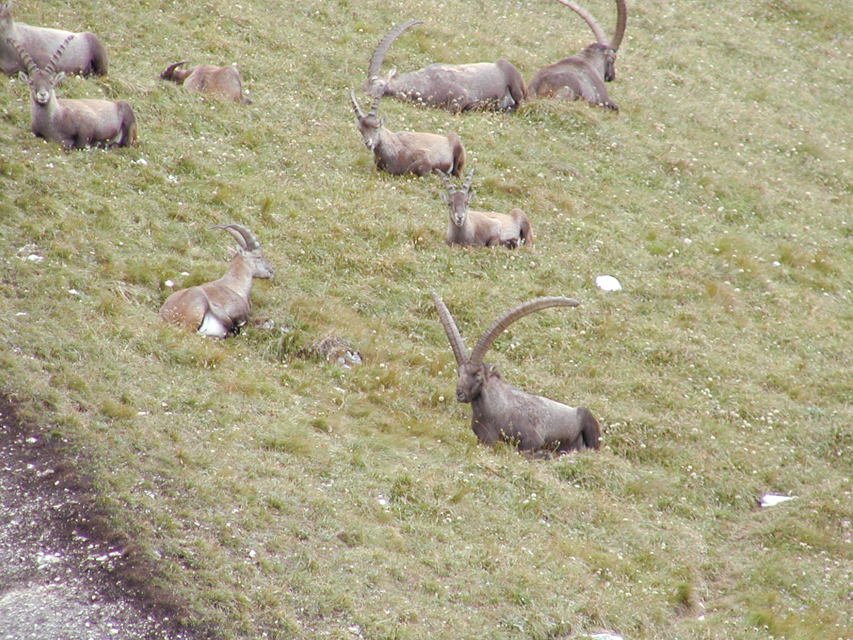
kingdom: Animalia
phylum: Chordata
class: Mammalia
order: Artiodactyla
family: Bovidae
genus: Capra
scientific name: Capra ibex
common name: Alpine ibex
